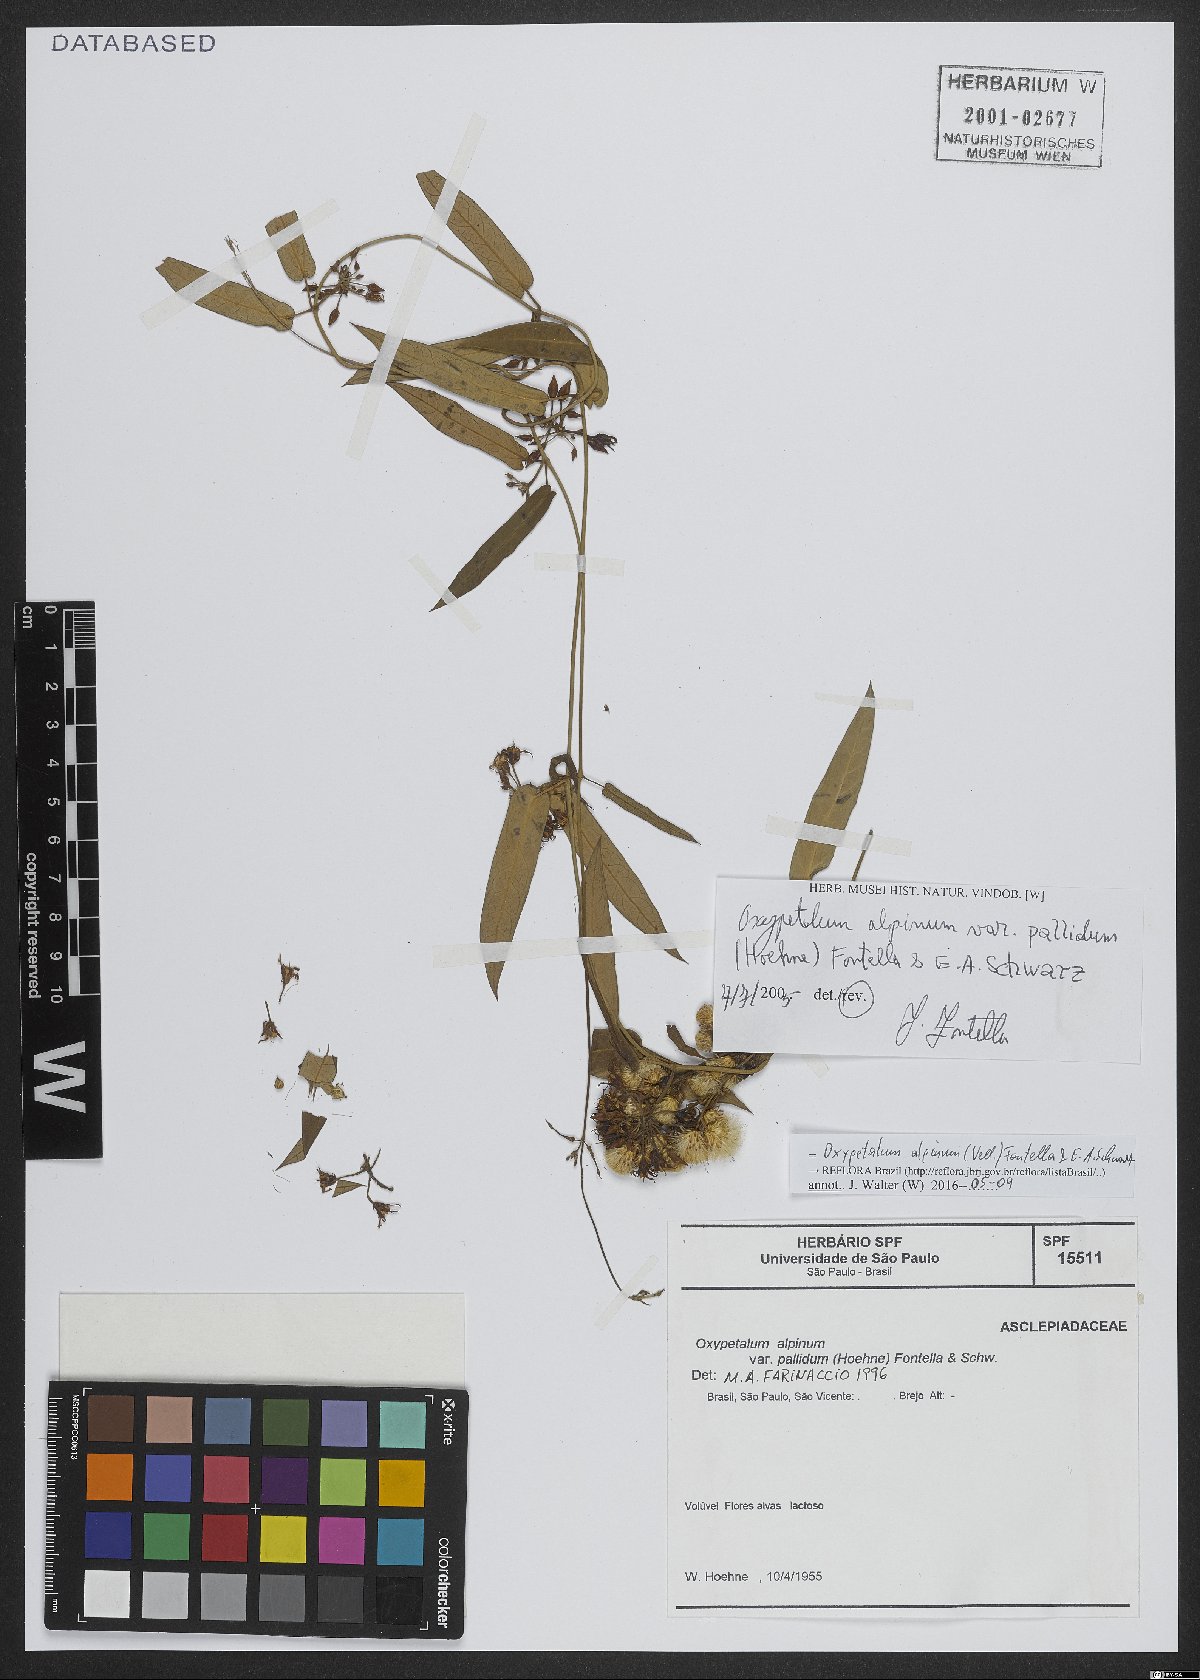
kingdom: Plantae
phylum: Tracheophyta
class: Magnoliopsida
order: Gentianales
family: Apocynaceae
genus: Oxypetalum
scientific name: Oxypetalum alpinum
